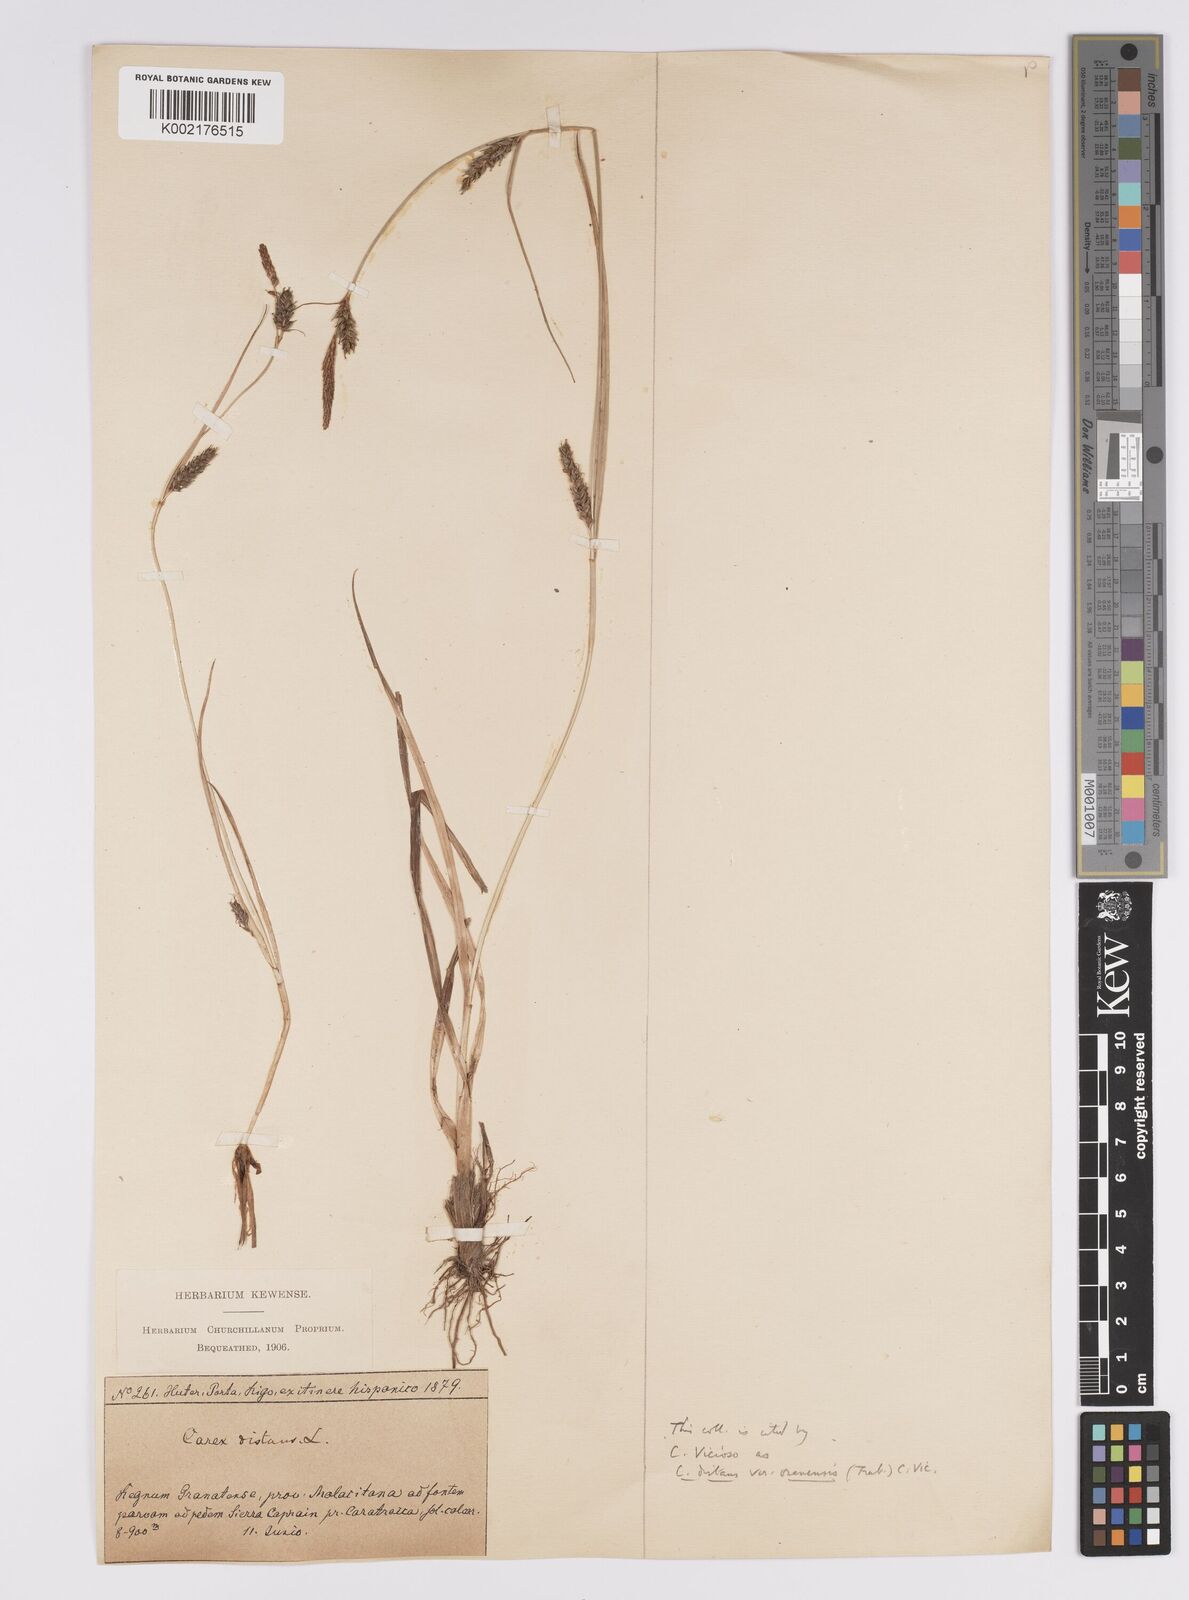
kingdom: Plantae
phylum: Tracheophyta
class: Liliopsida
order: Poales
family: Cyperaceae
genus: Carex
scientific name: Carex distans
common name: Distant sedge
